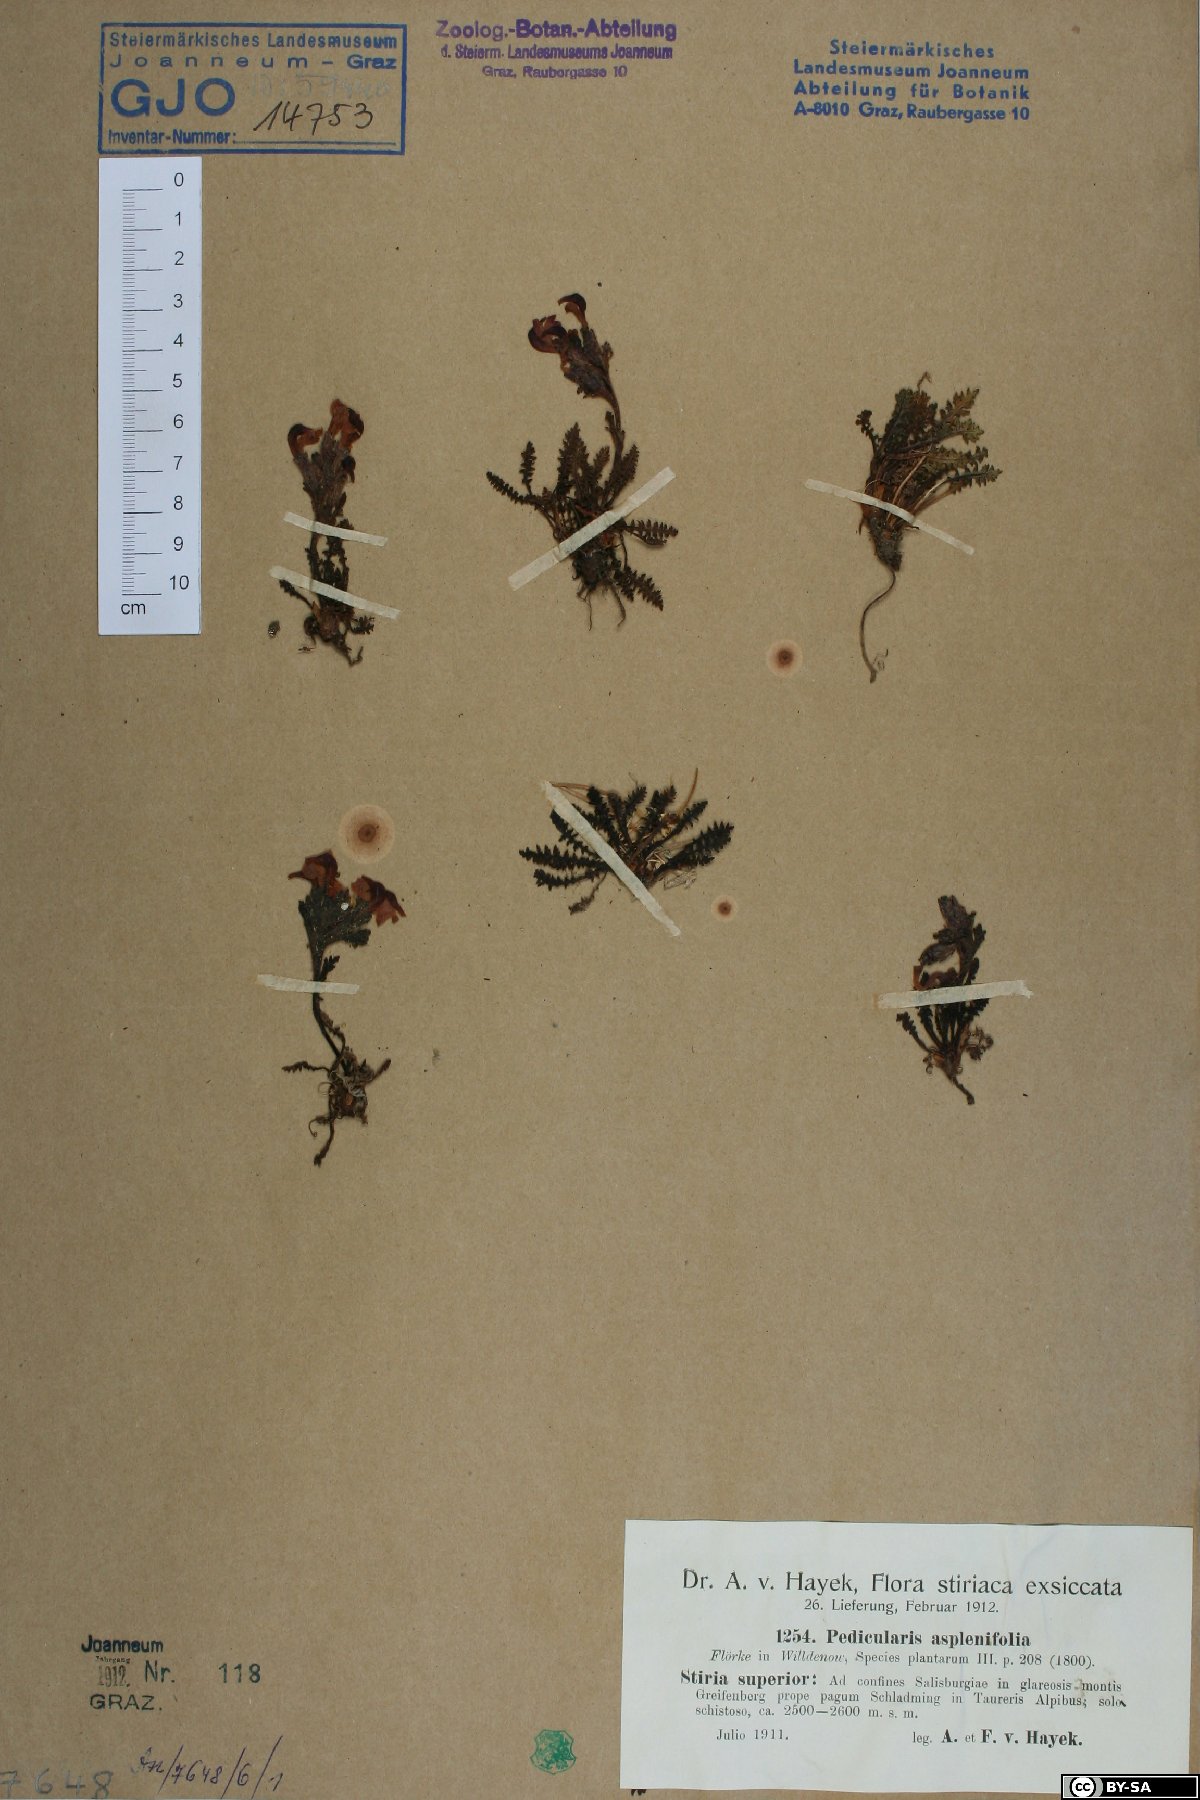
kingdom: Plantae
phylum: Tracheophyta
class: Magnoliopsida
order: Lamiales
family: Orobanchaceae
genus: Pedicularis
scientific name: Pedicularis asplenifolia
